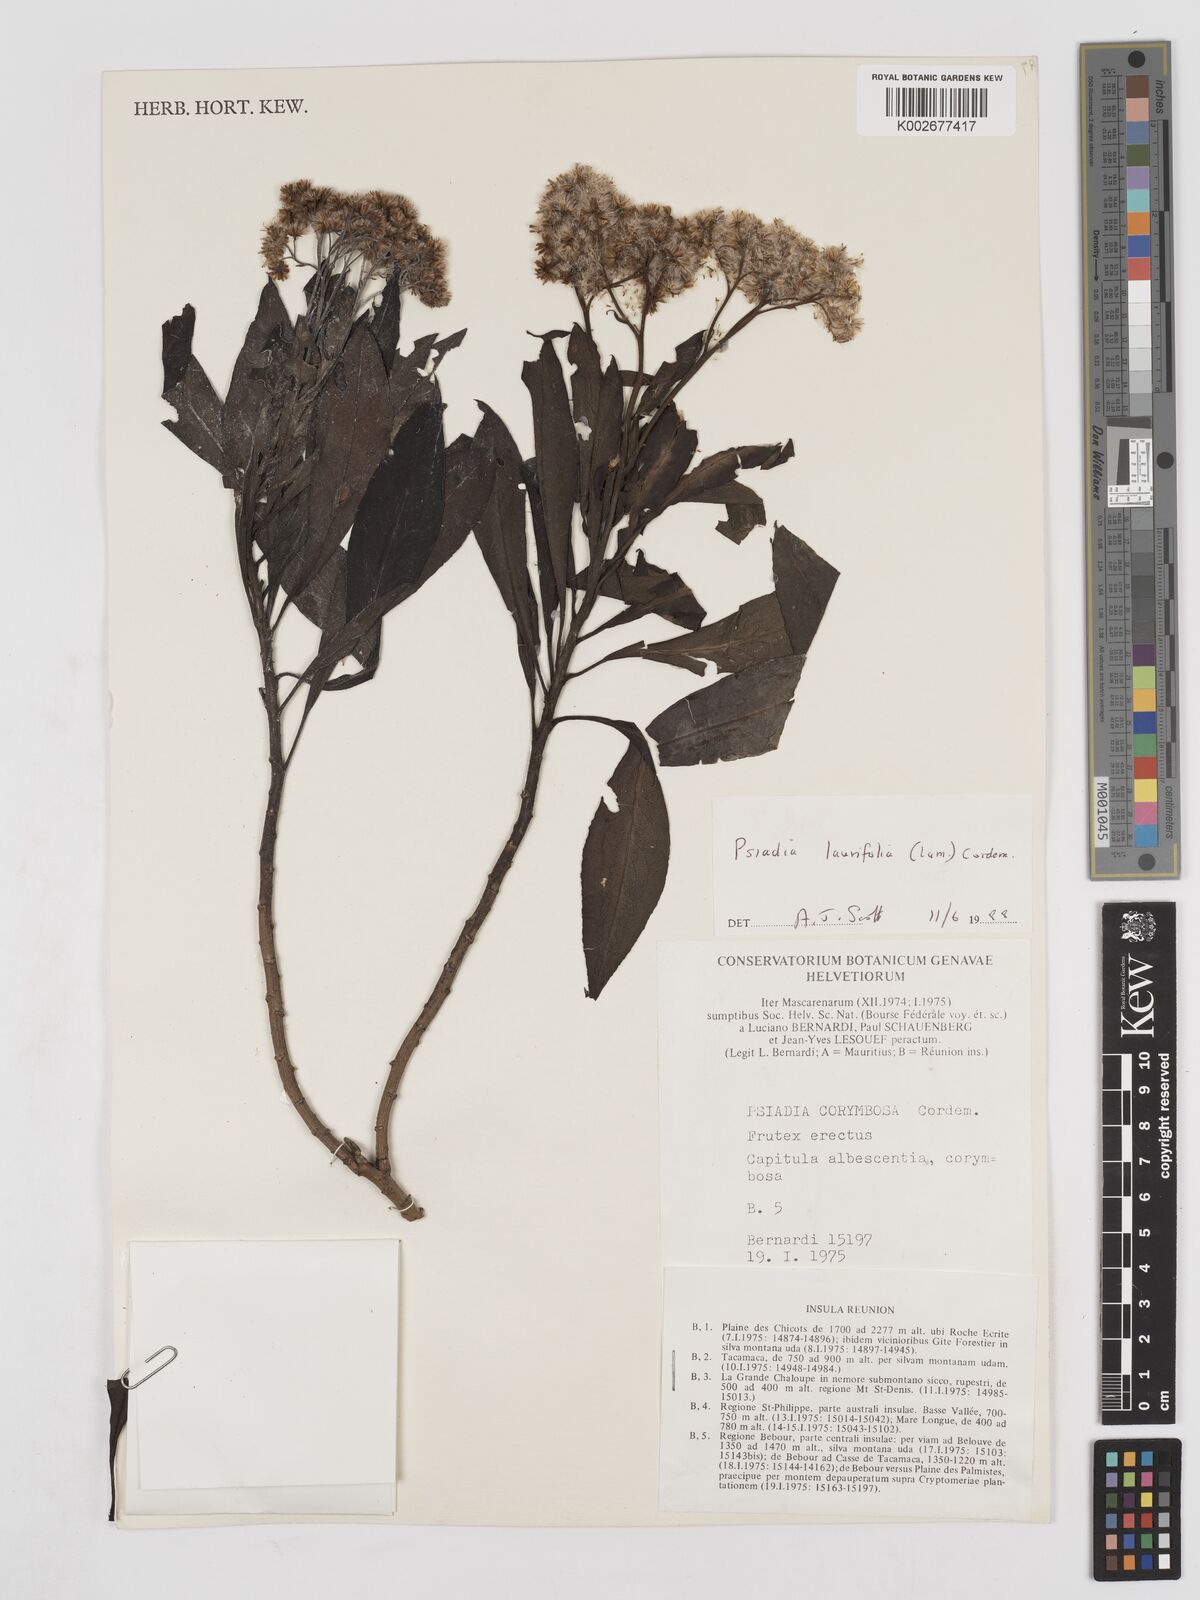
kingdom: Plantae
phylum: Tracheophyta
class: Magnoliopsida
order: Asterales
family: Asteraceae
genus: Psiadia
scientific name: Psiadia laurifolia
